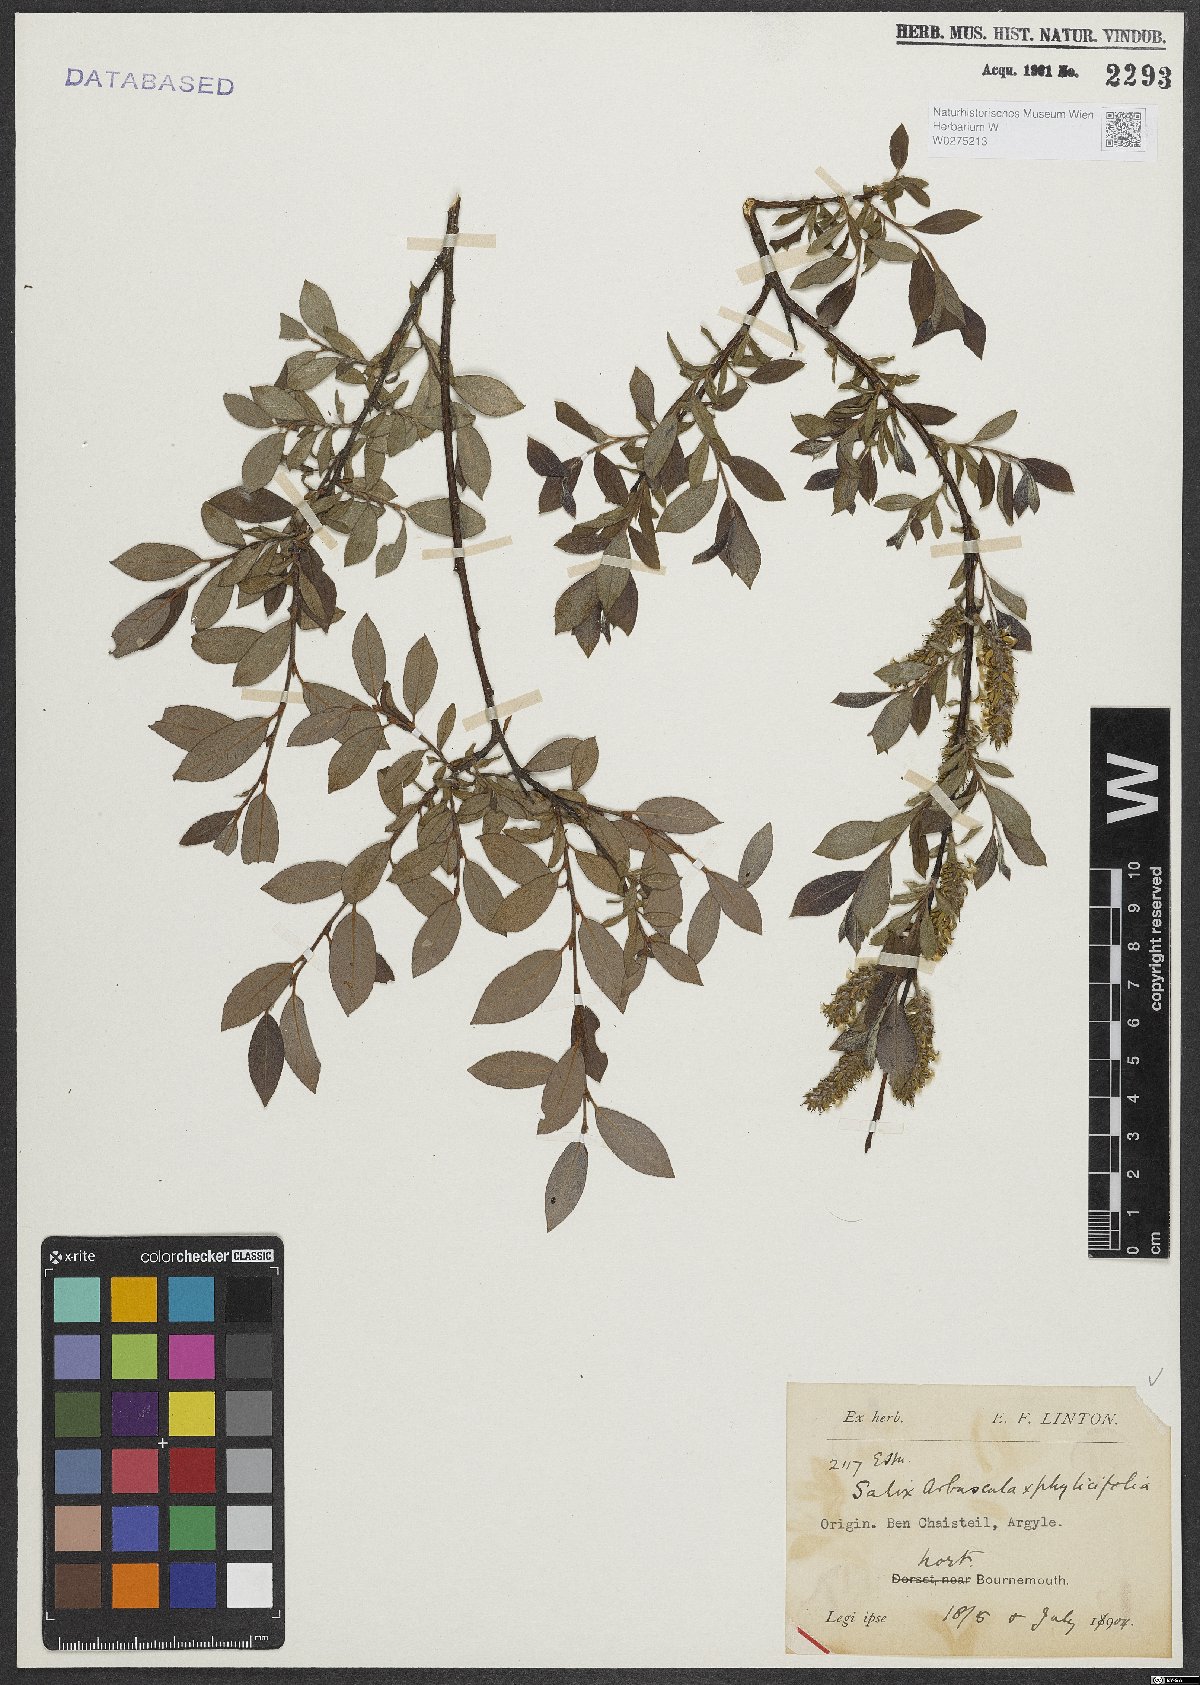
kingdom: Plantae
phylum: Tracheophyta
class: Magnoliopsida
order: Malpighiales
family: Salicaceae
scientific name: Salicaceae
